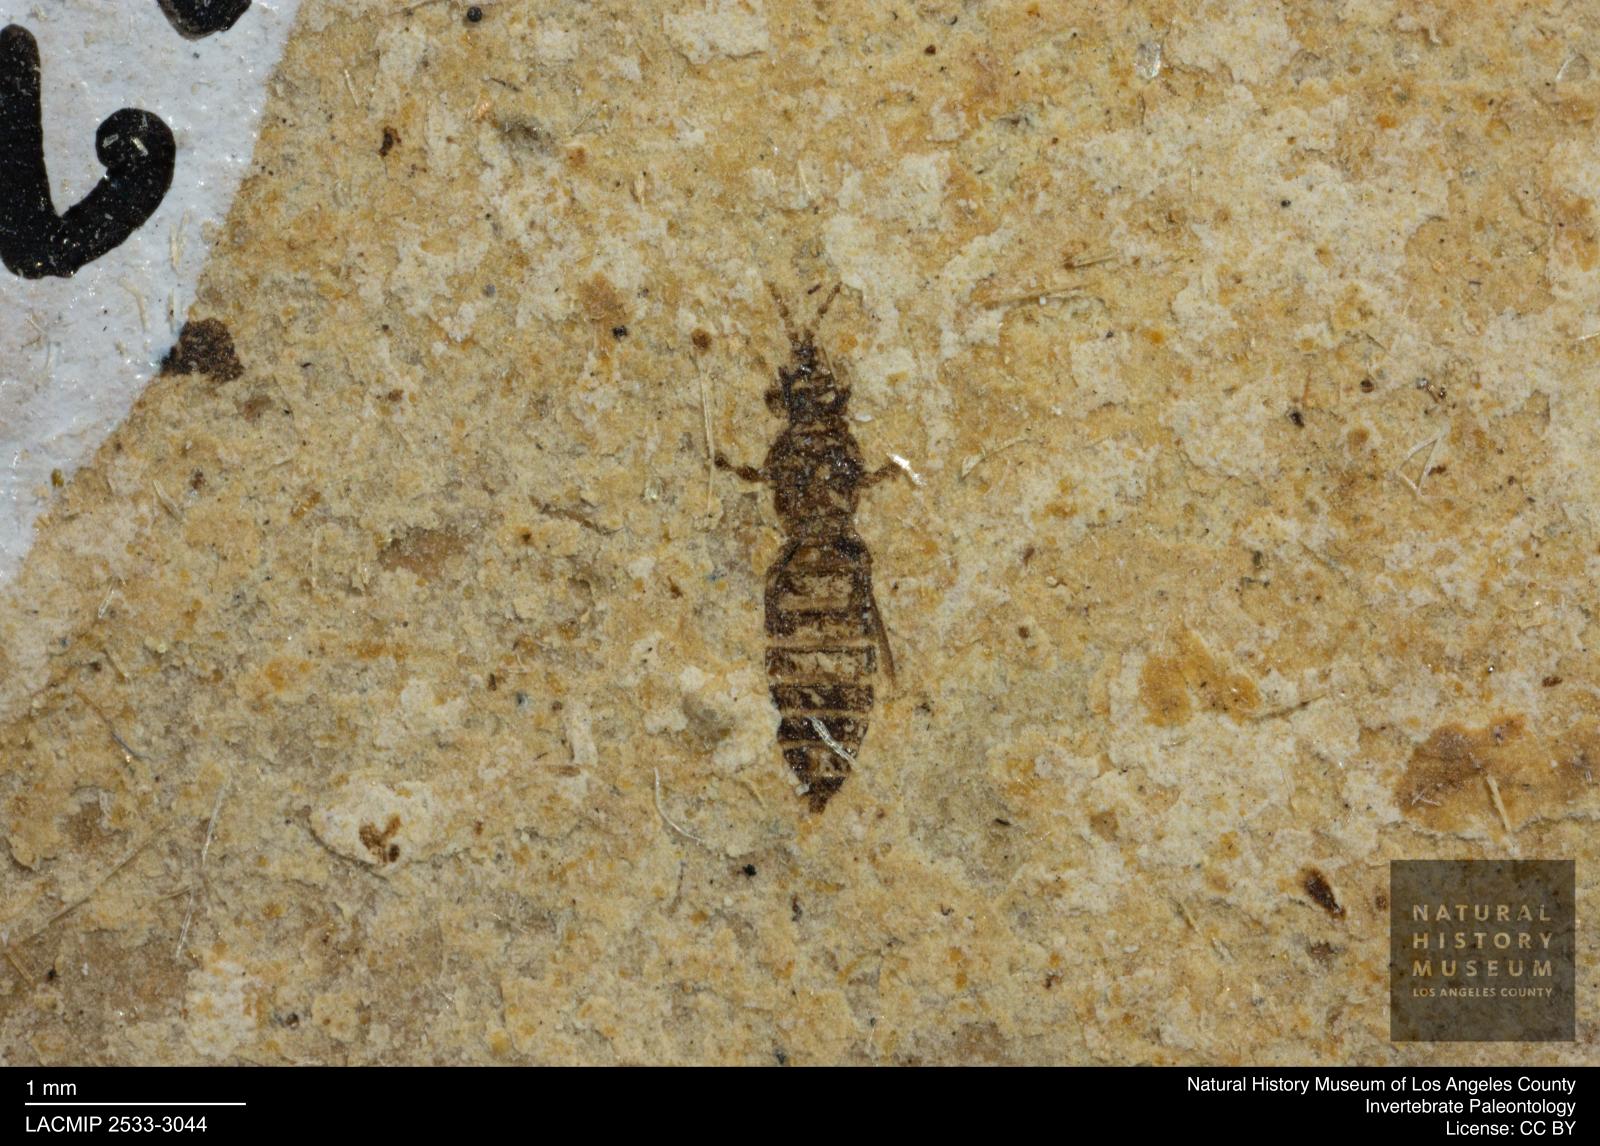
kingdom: Animalia
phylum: Arthropoda
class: Insecta
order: Thysanoptera
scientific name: Thysanoptera
